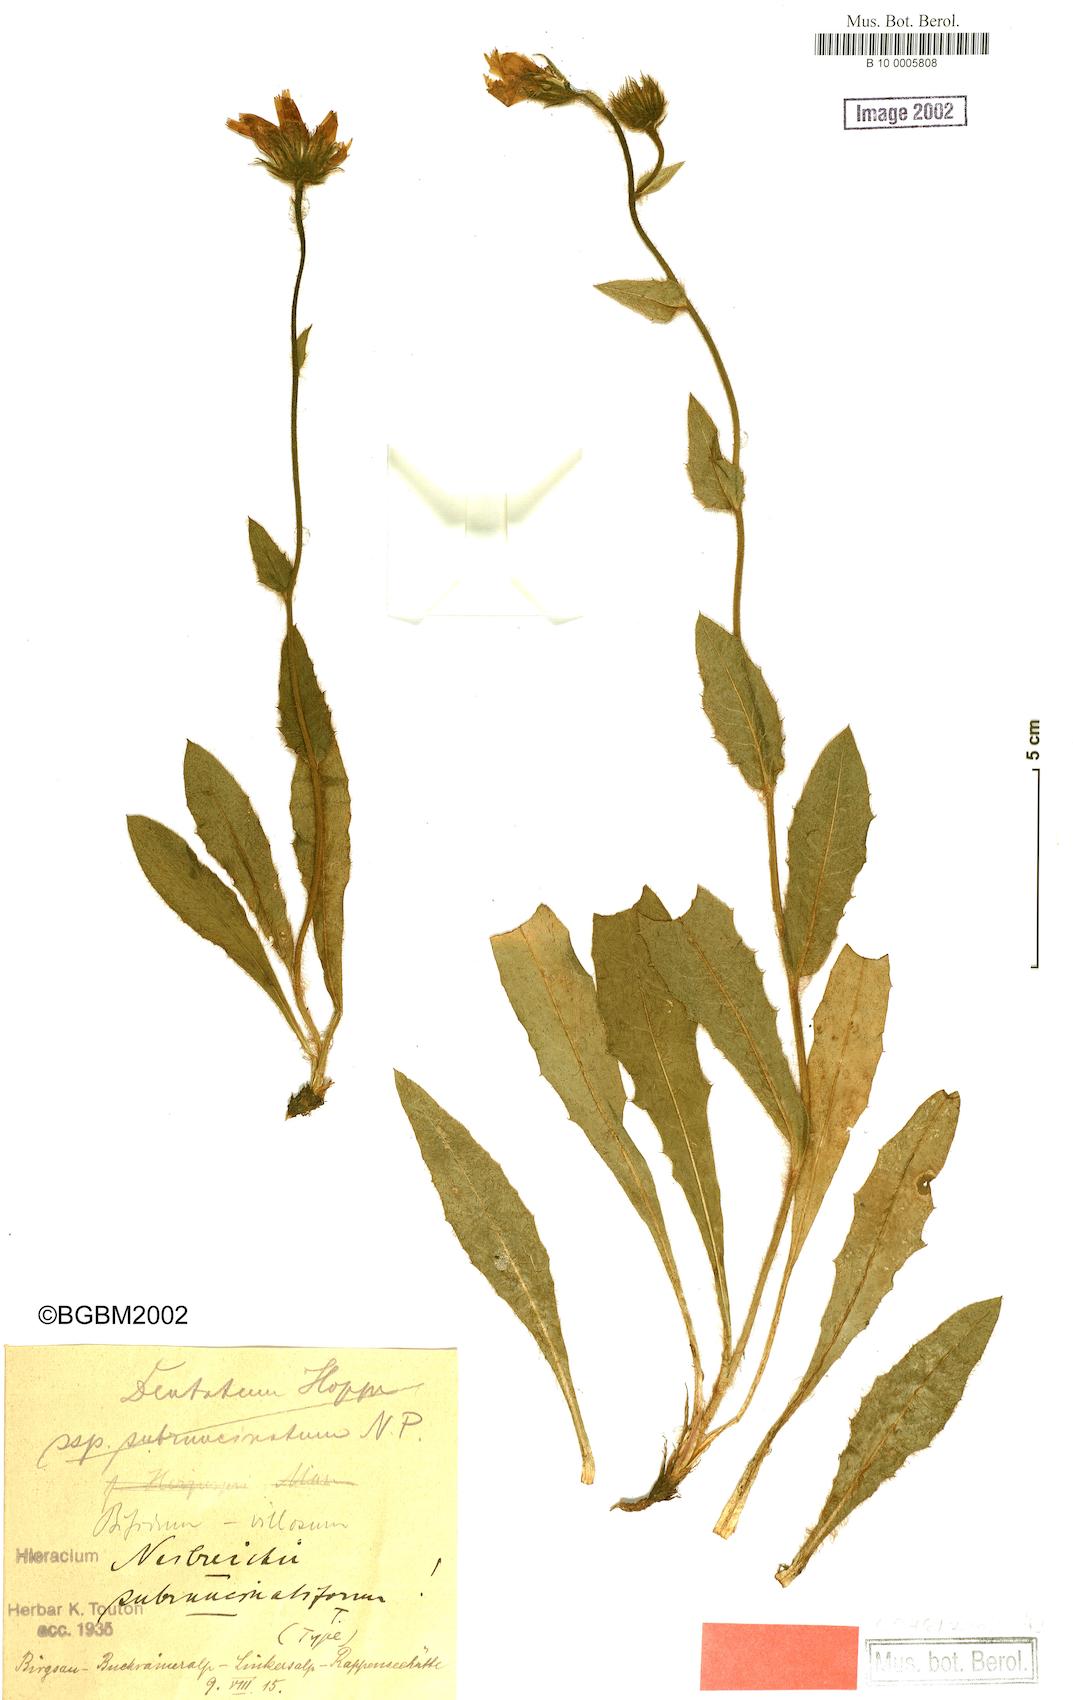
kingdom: Plantae
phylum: Tracheophyta
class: Magnoliopsida
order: Asterales
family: Asteraceae
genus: Hieracium
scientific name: Hieracium benzianum
